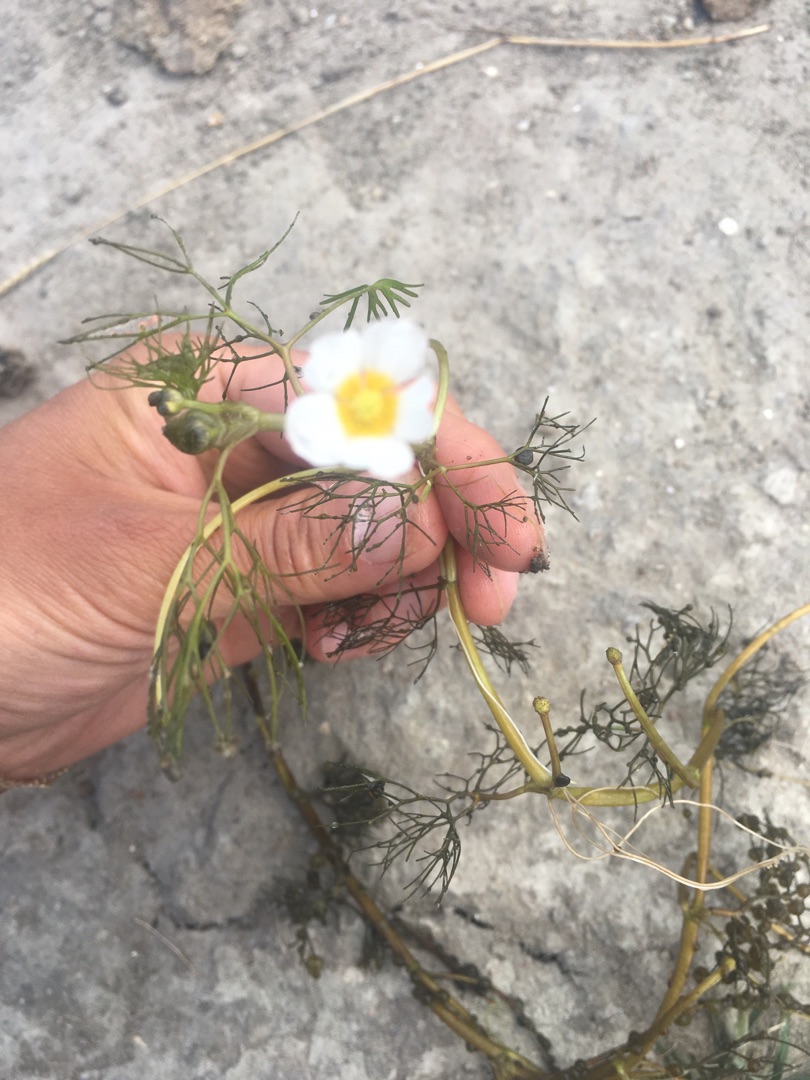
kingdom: Plantae
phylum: Tracheophyta
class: Magnoliopsida
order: Ranunculales
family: Ranunculaceae
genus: Ranunculus
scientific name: Ranunculus peltatus
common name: Storblomstret vandranunkel
